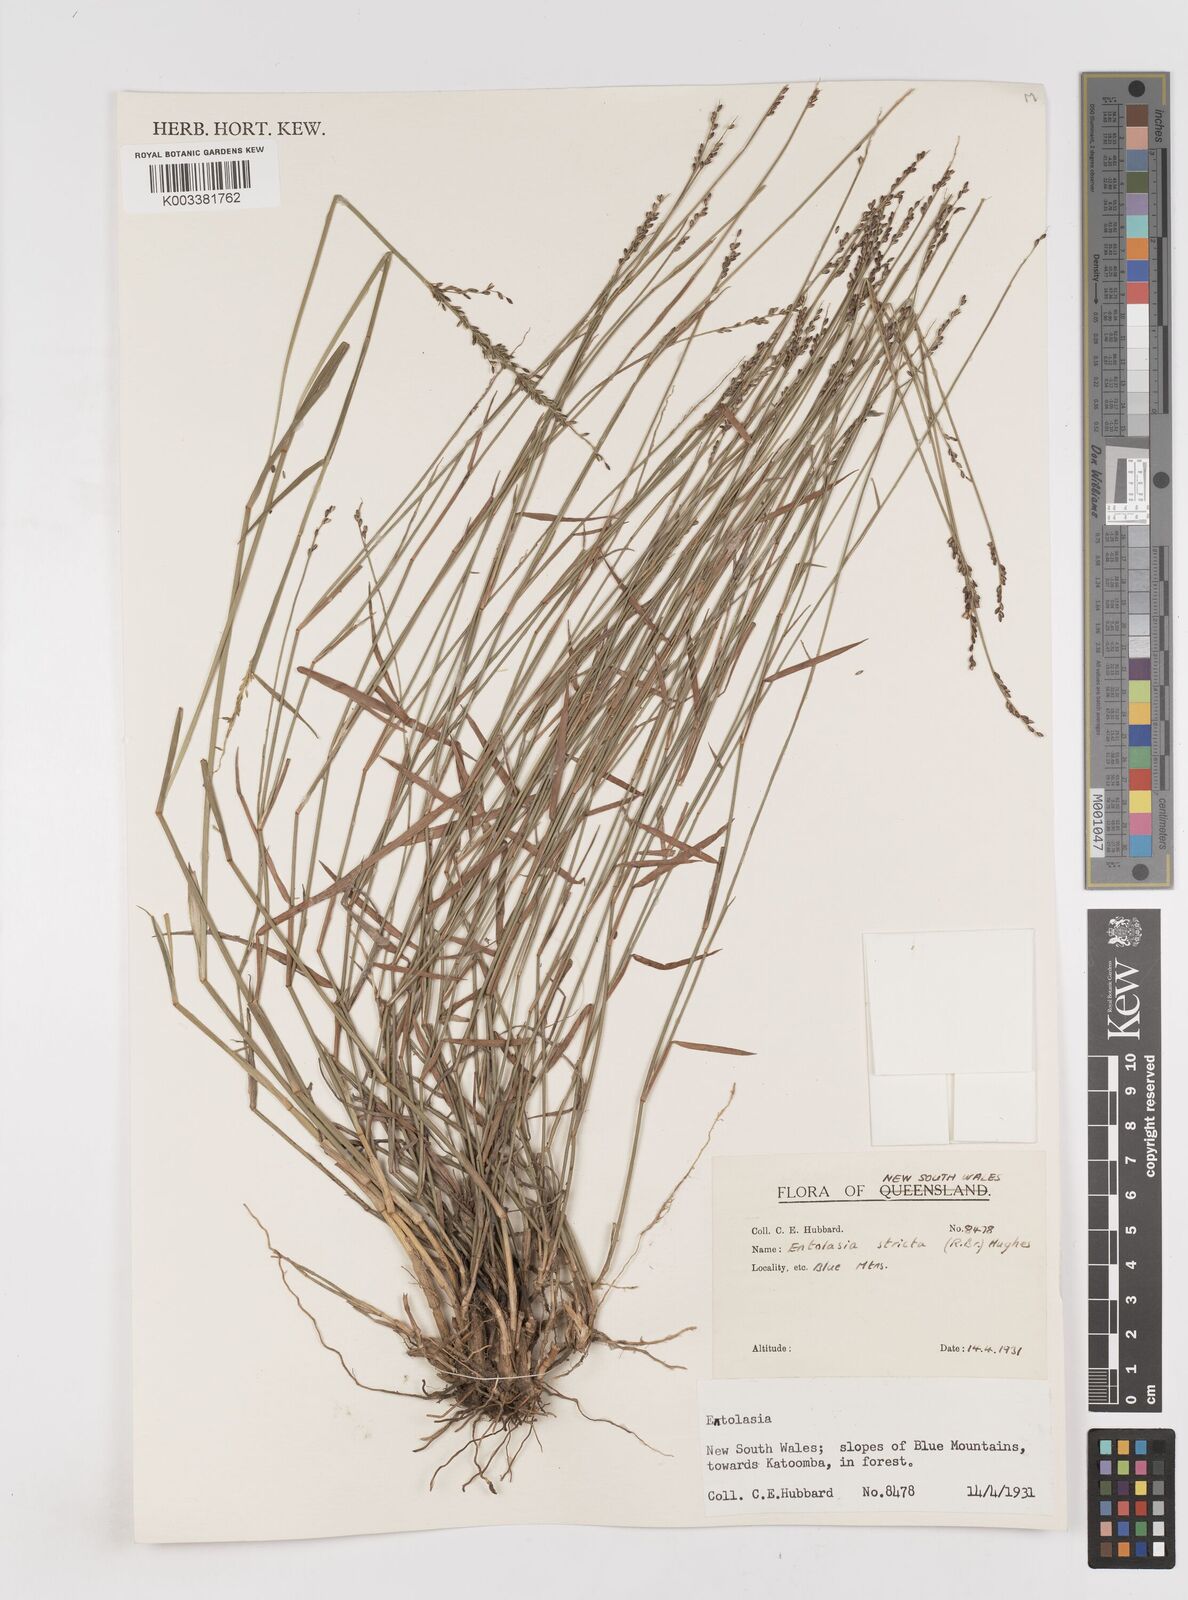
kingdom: Plantae
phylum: Tracheophyta
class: Liliopsida
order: Poales
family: Poaceae
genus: Entolasia
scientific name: Entolasia stricta
